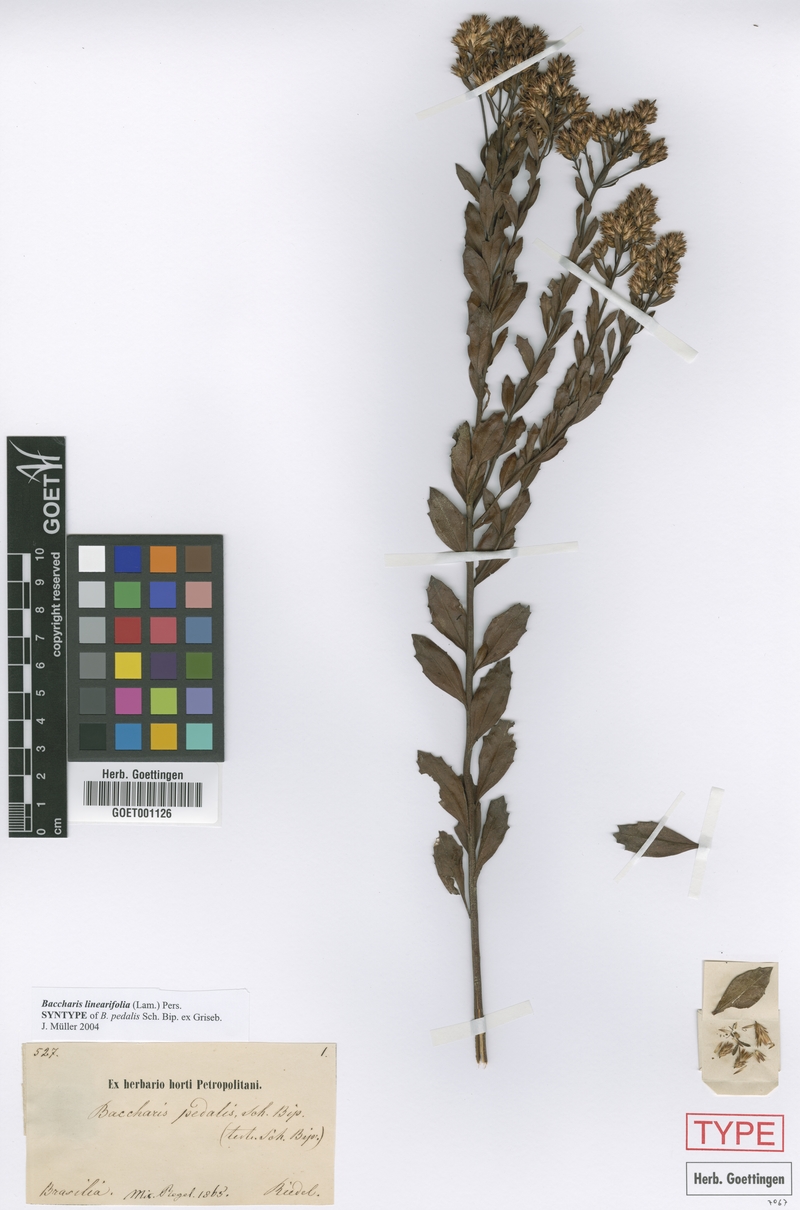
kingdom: Plantae
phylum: Tracheophyta
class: Magnoliopsida
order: Asterales
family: Asteraceae
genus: Baccharis
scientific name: Baccharis linearifolia
